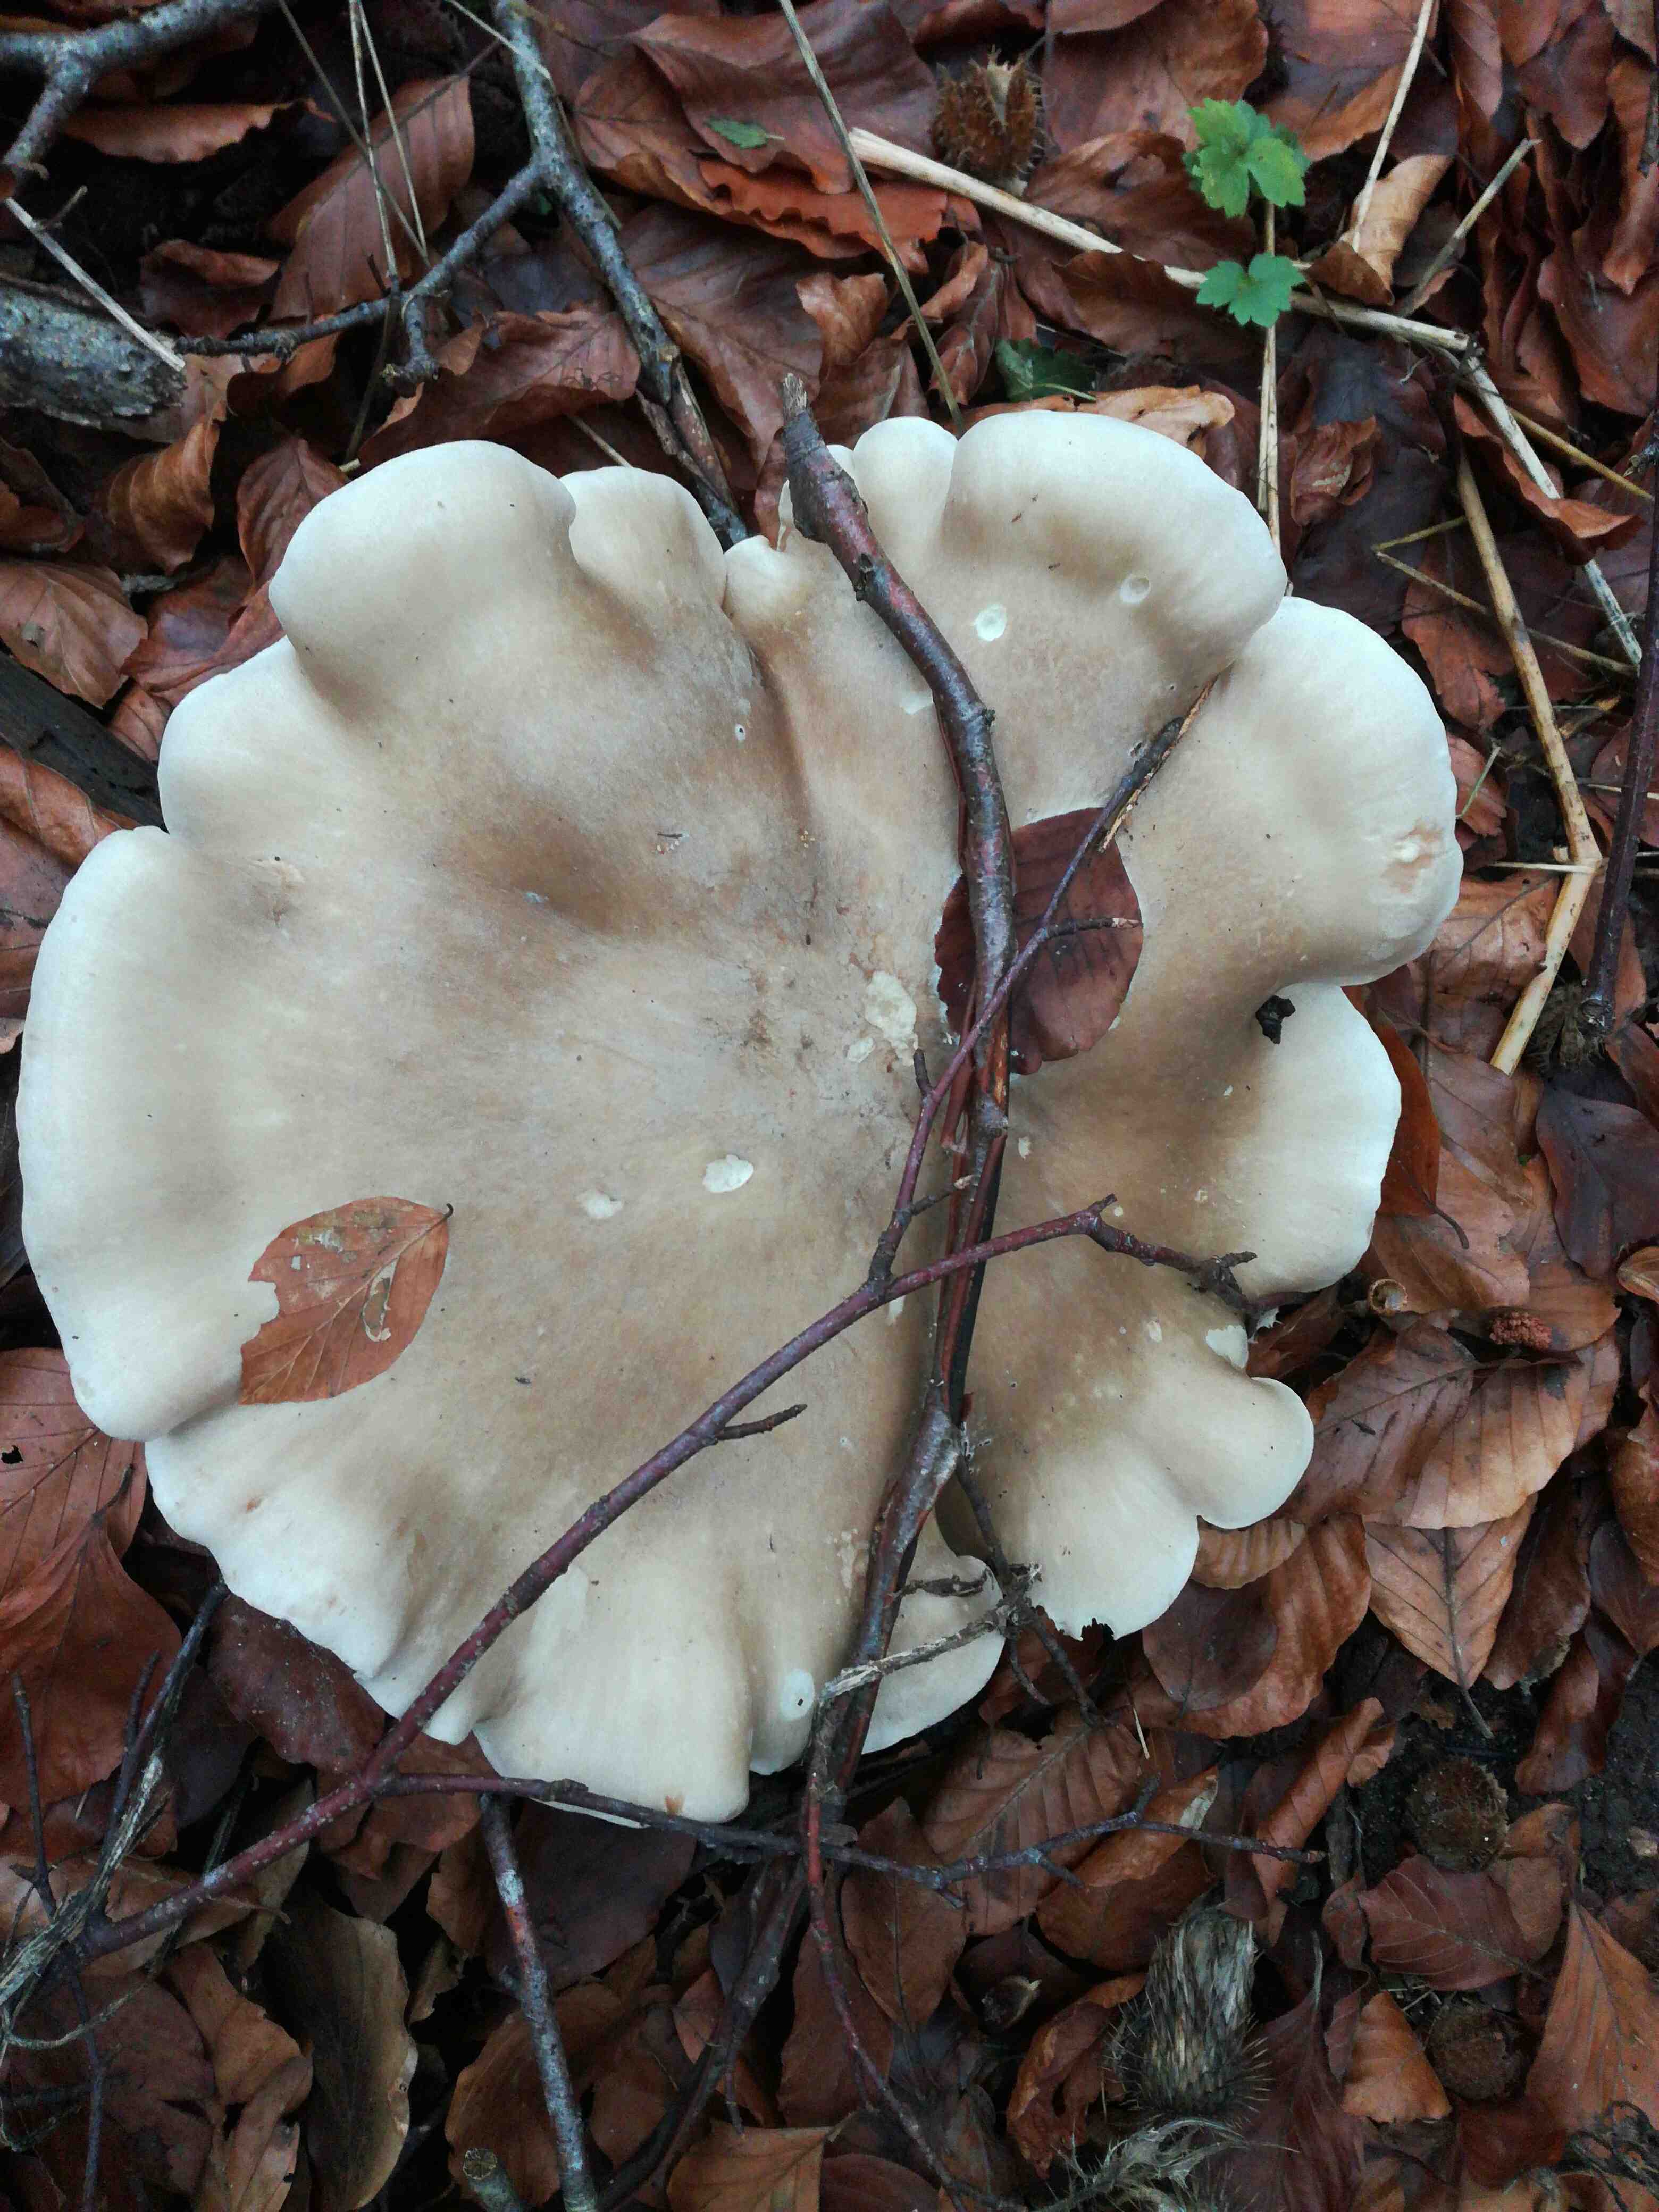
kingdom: Fungi
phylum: Basidiomycota
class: Agaricomycetes
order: Agaricales
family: Tricholomataceae
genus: Clitocybe
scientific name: Clitocybe nebularis
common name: tåge-tragthat
